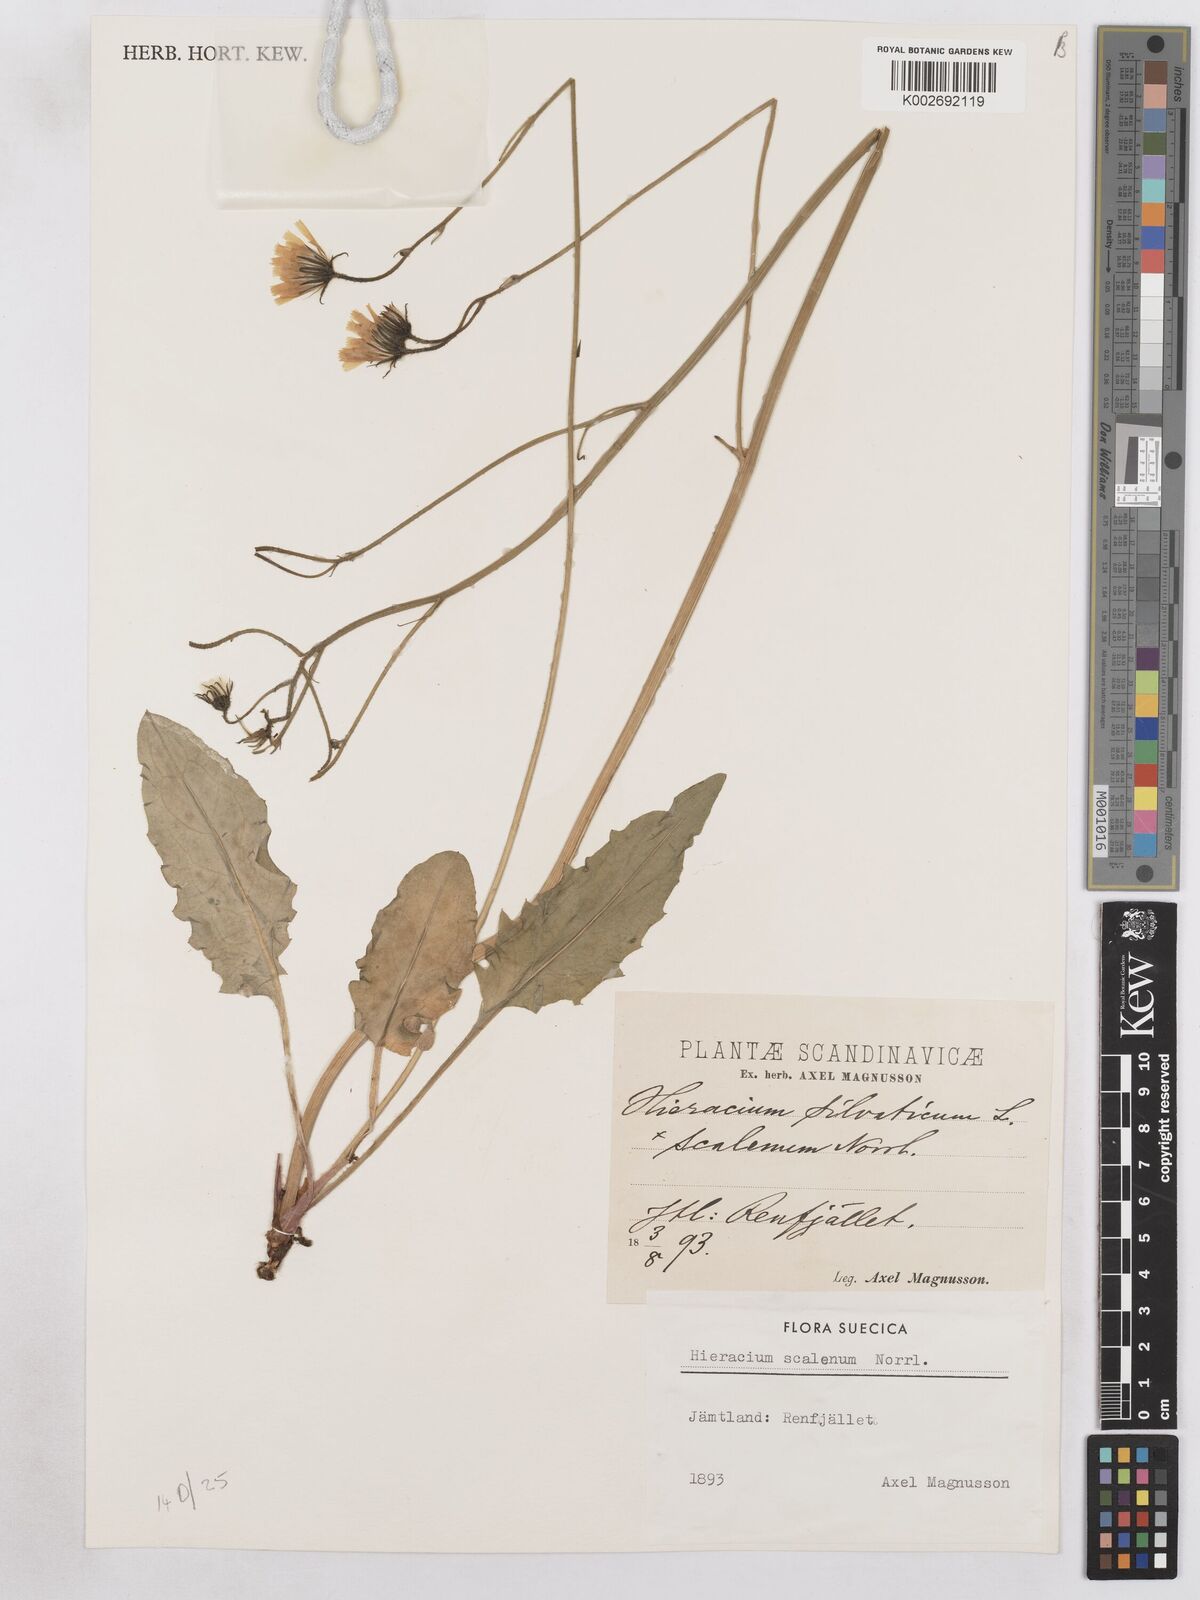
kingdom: Plantae
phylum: Tracheophyta
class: Magnoliopsida
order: Asterales
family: Asteraceae
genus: Hieracium
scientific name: Hieracium fuscocinereum
